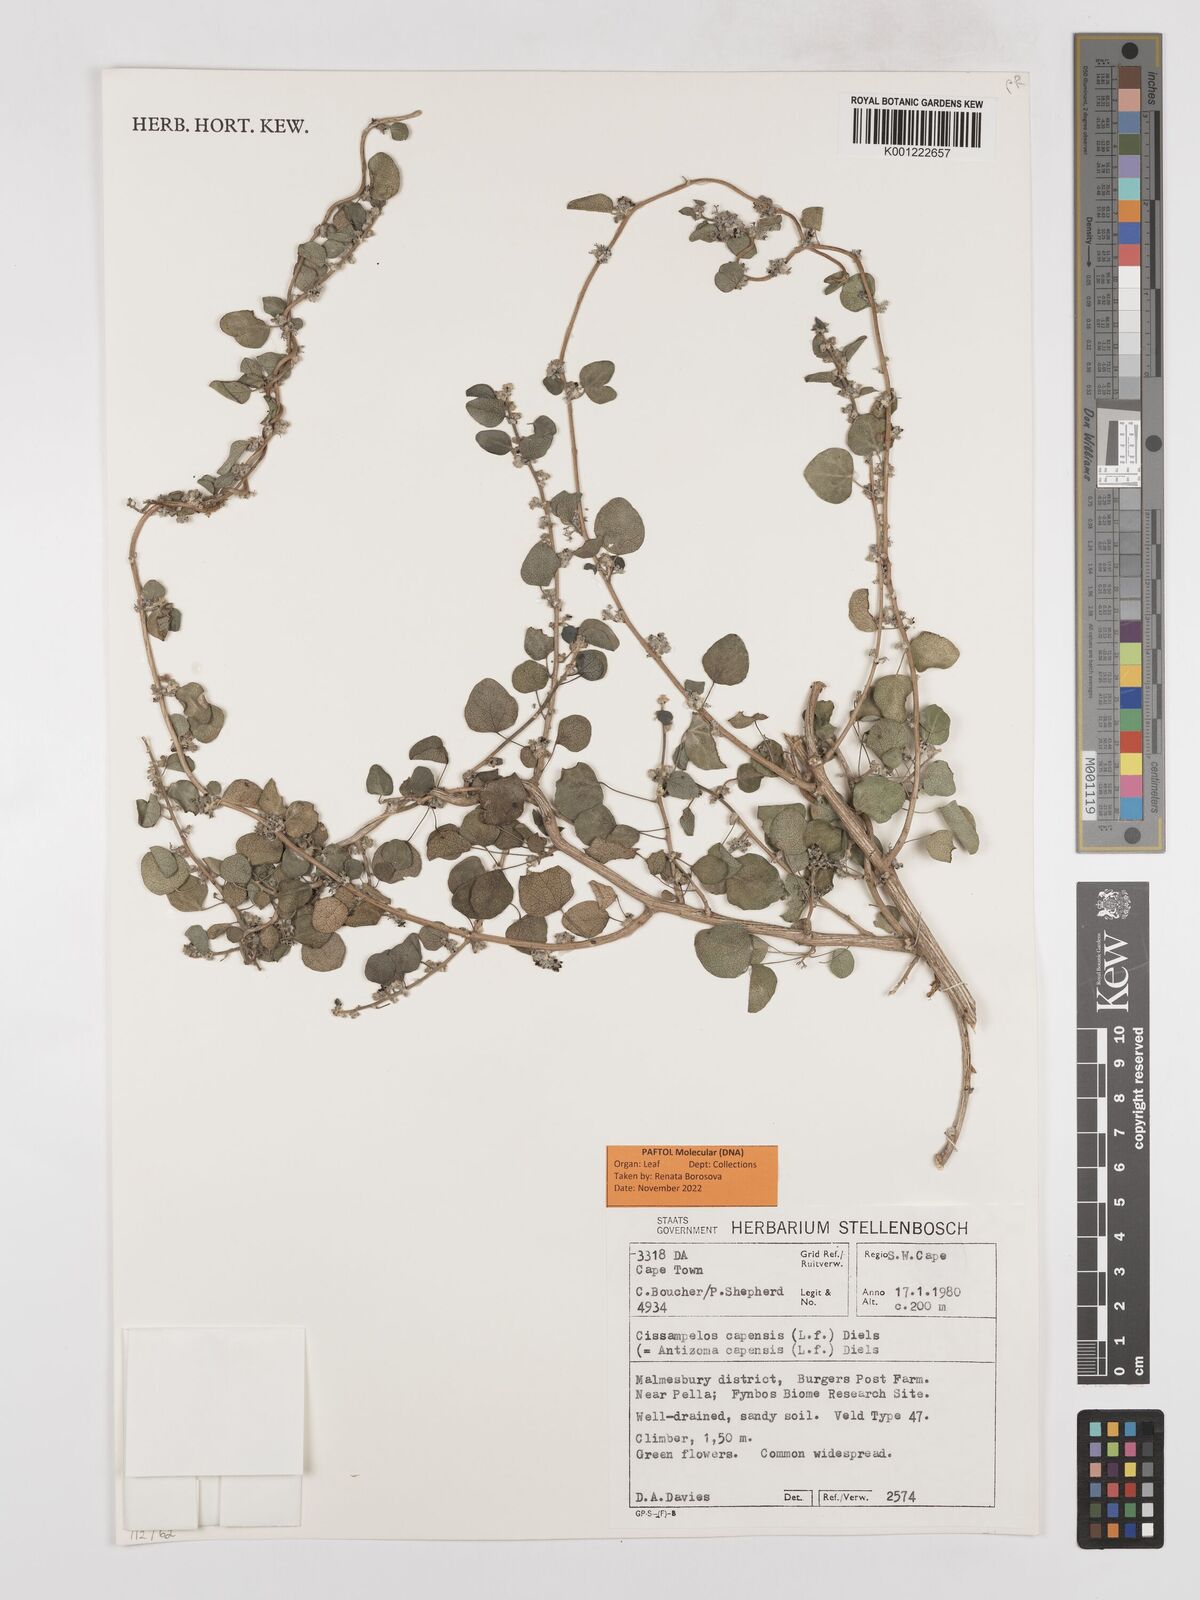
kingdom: Plantae
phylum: Tracheophyta
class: Magnoliopsida
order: Ranunculales
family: Menispermaceae
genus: Cissampelos
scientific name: Cissampelos capensis
